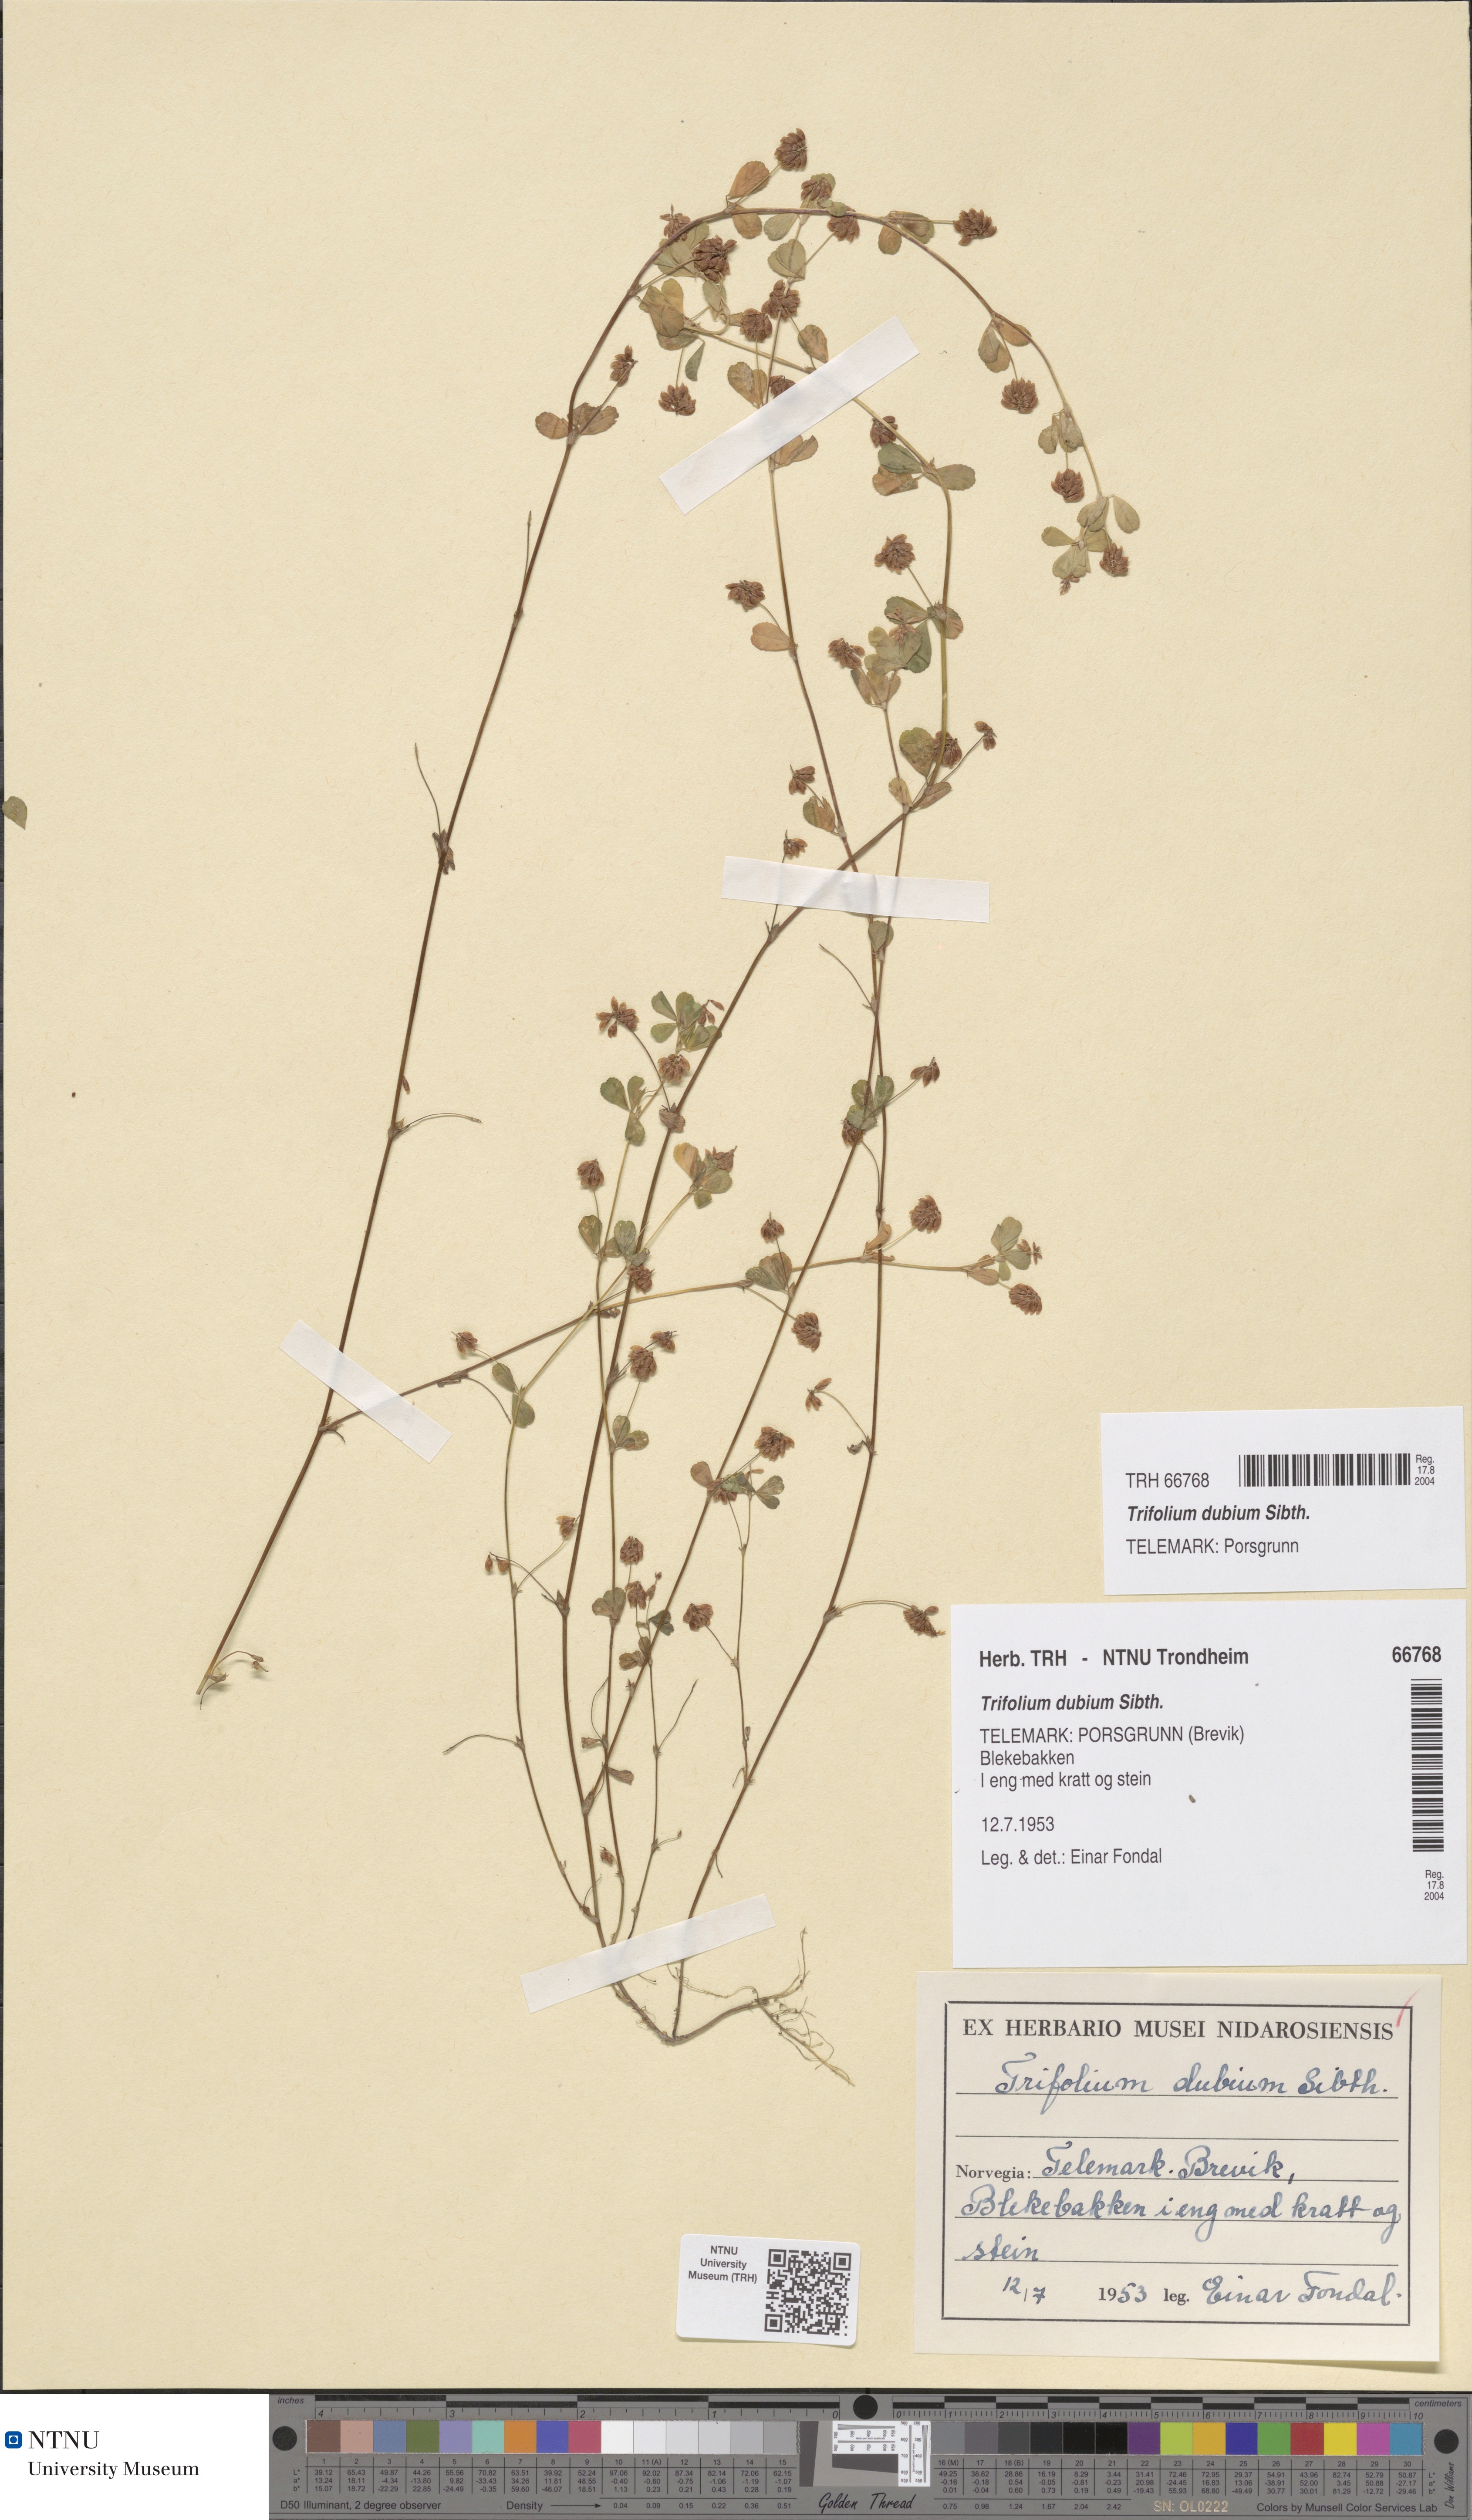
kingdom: Plantae
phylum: Tracheophyta
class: Magnoliopsida
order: Fabales
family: Fabaceae
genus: Trifolium
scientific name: Trifolium dubium
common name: Suckling clover
